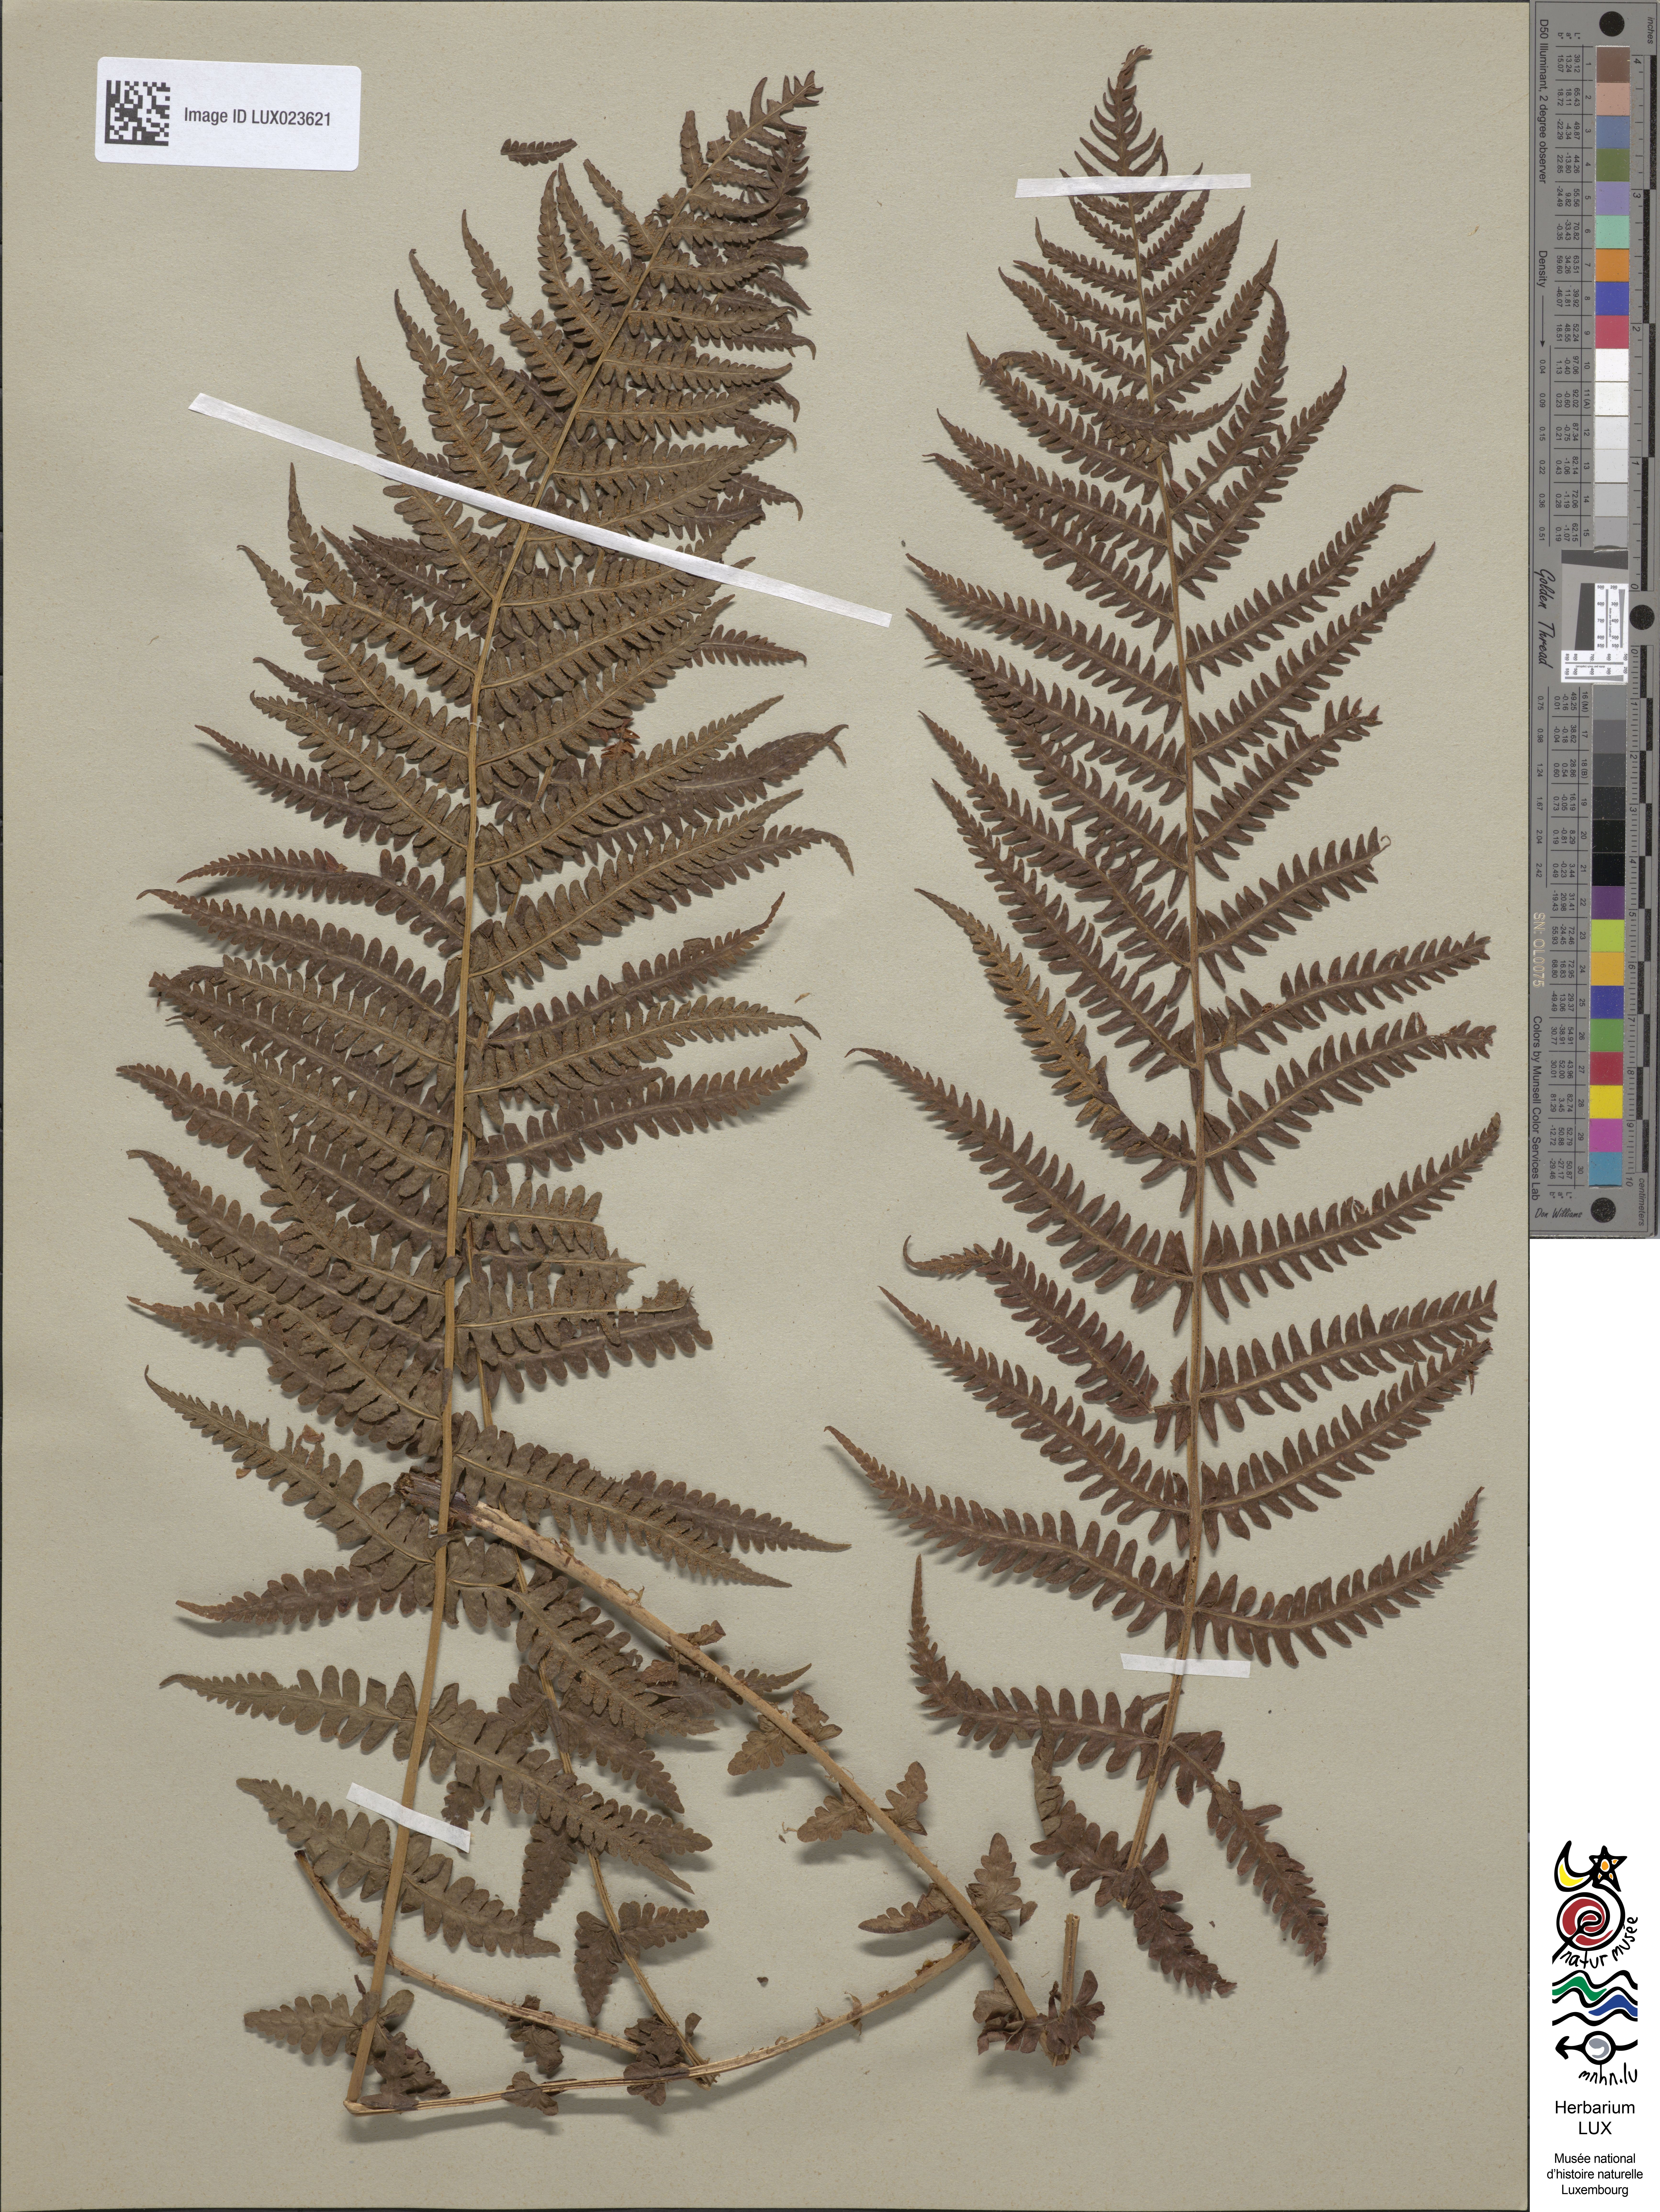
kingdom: Plantae
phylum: Tracheophyta
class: Polypodiopsida
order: Polypodiales
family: Thelypteridaceae
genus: Oreopteris
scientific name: Oreopteris limbosperma
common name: Lemon-scented fern
